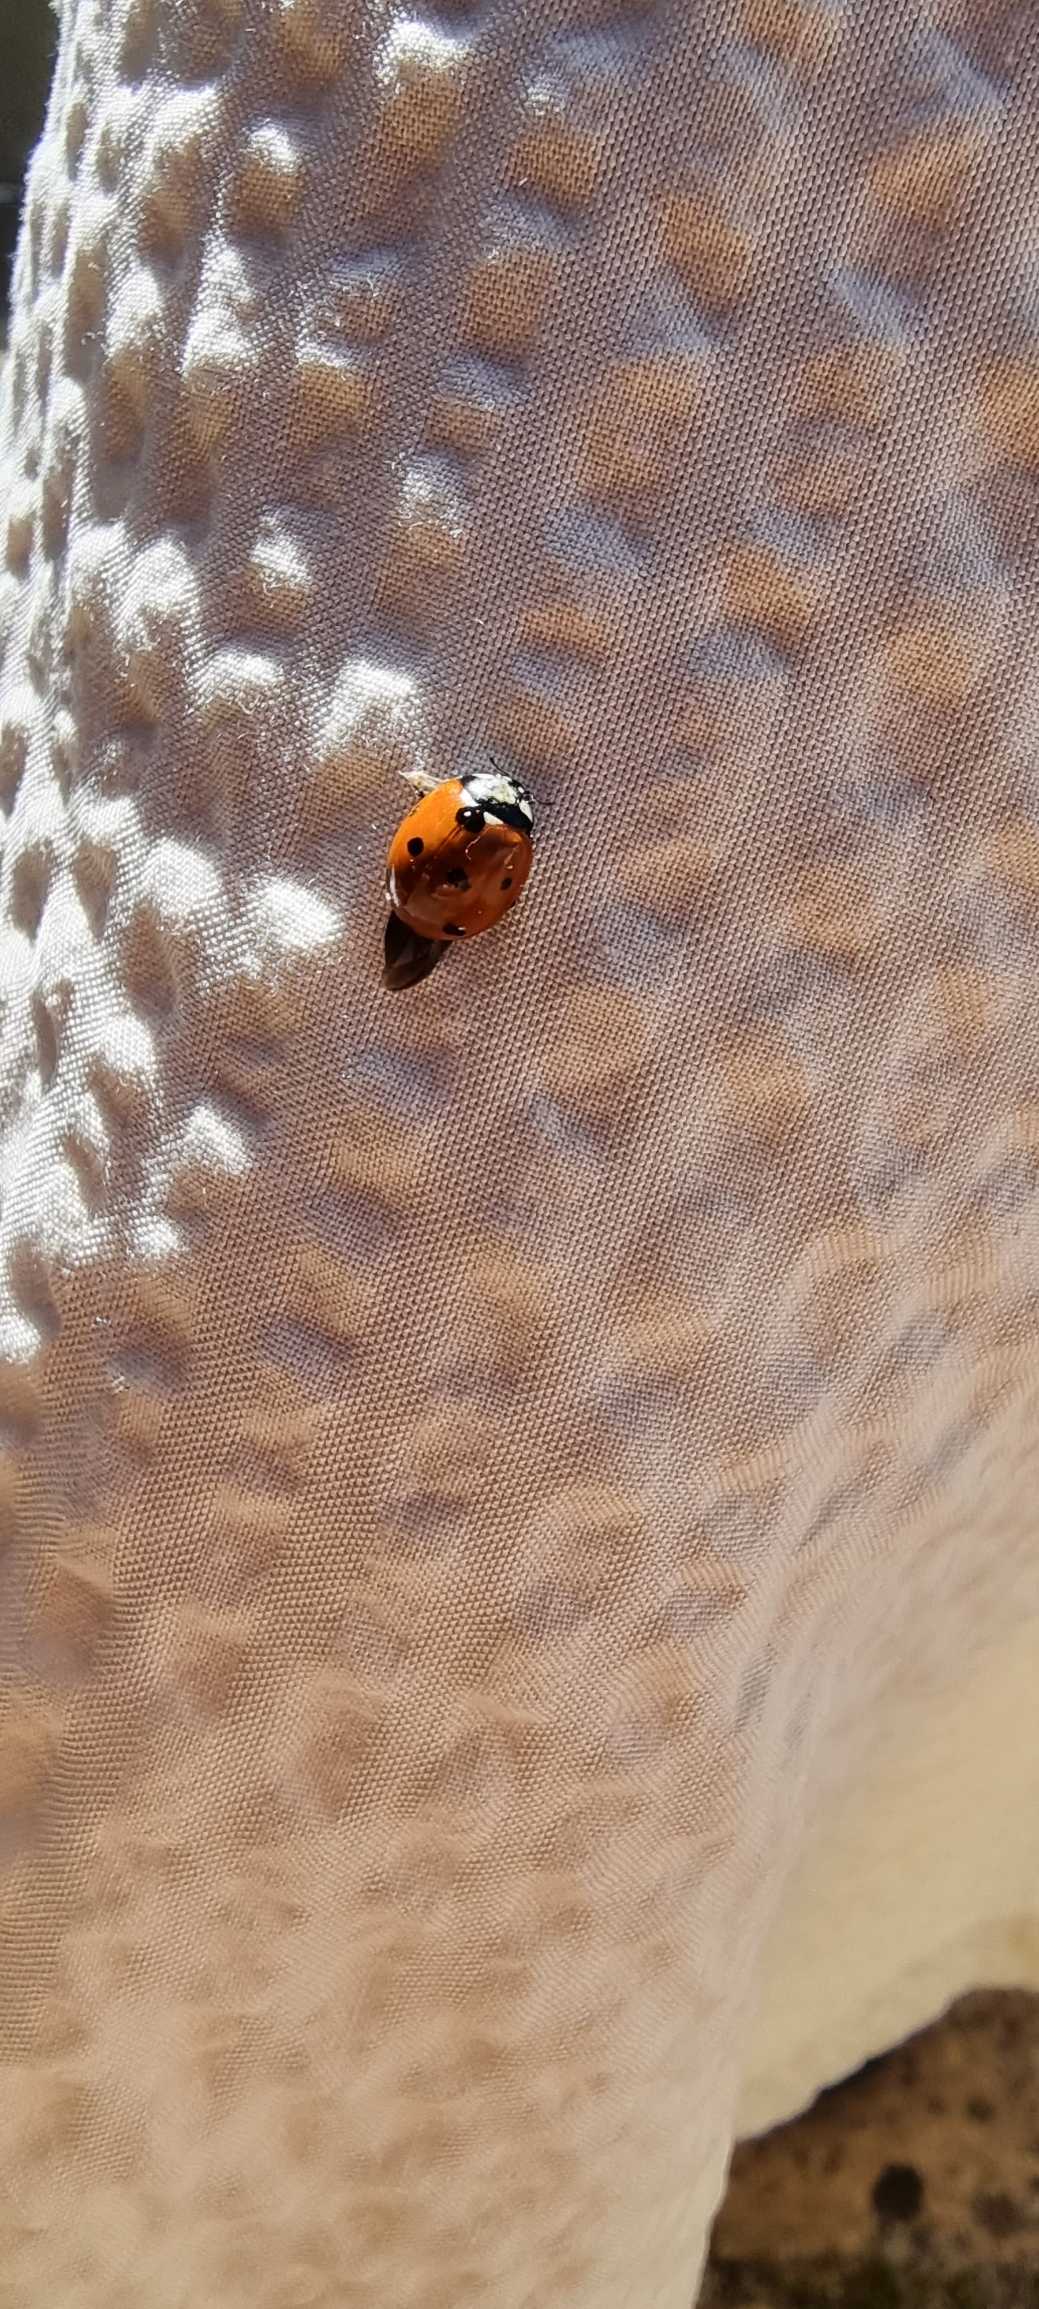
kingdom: Animalia
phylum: Arthropoda
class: Insecta
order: Coleoptera
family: Coccinellidae
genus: Coccinella
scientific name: Coccinella septempunctata
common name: Syvplettet mariehøne
